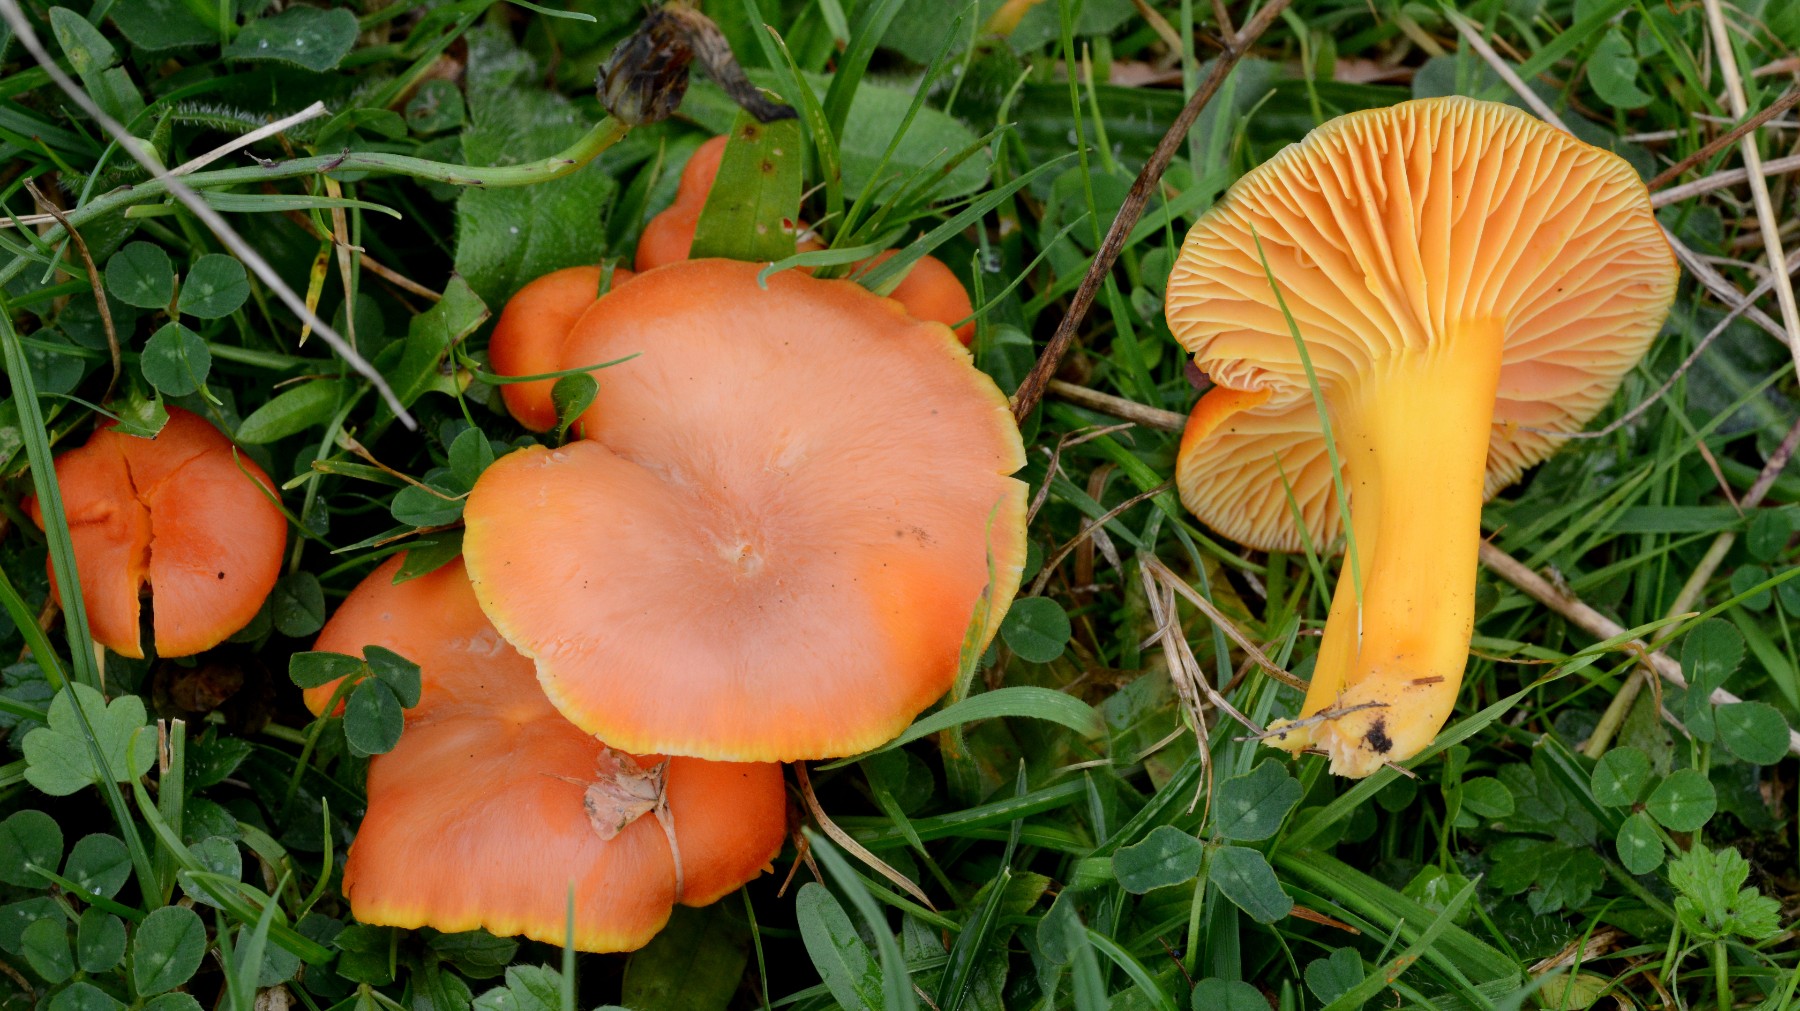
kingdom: Fungi
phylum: Basidiomycota
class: Agaricomycetes
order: Agaricales
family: Hygrophoraceae
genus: Hygrocybe
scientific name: Hygrocybe reidii
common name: honning-vokshat
